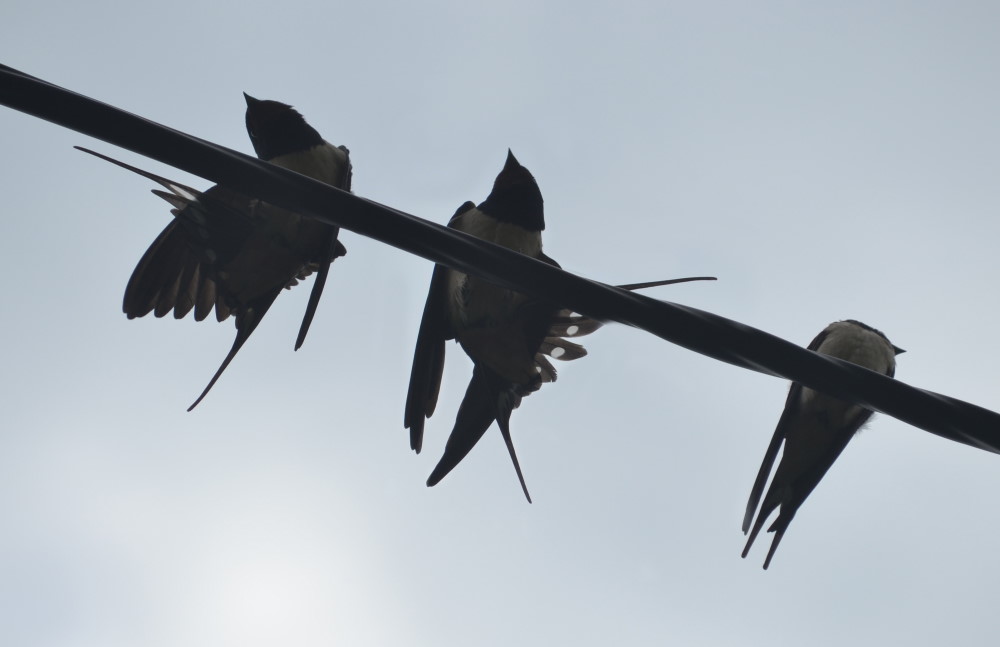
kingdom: Animalia
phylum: Chordata
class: Aves
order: Passeriformes
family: Hirundinidae
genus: Hirundo
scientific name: Hirundo rustica
